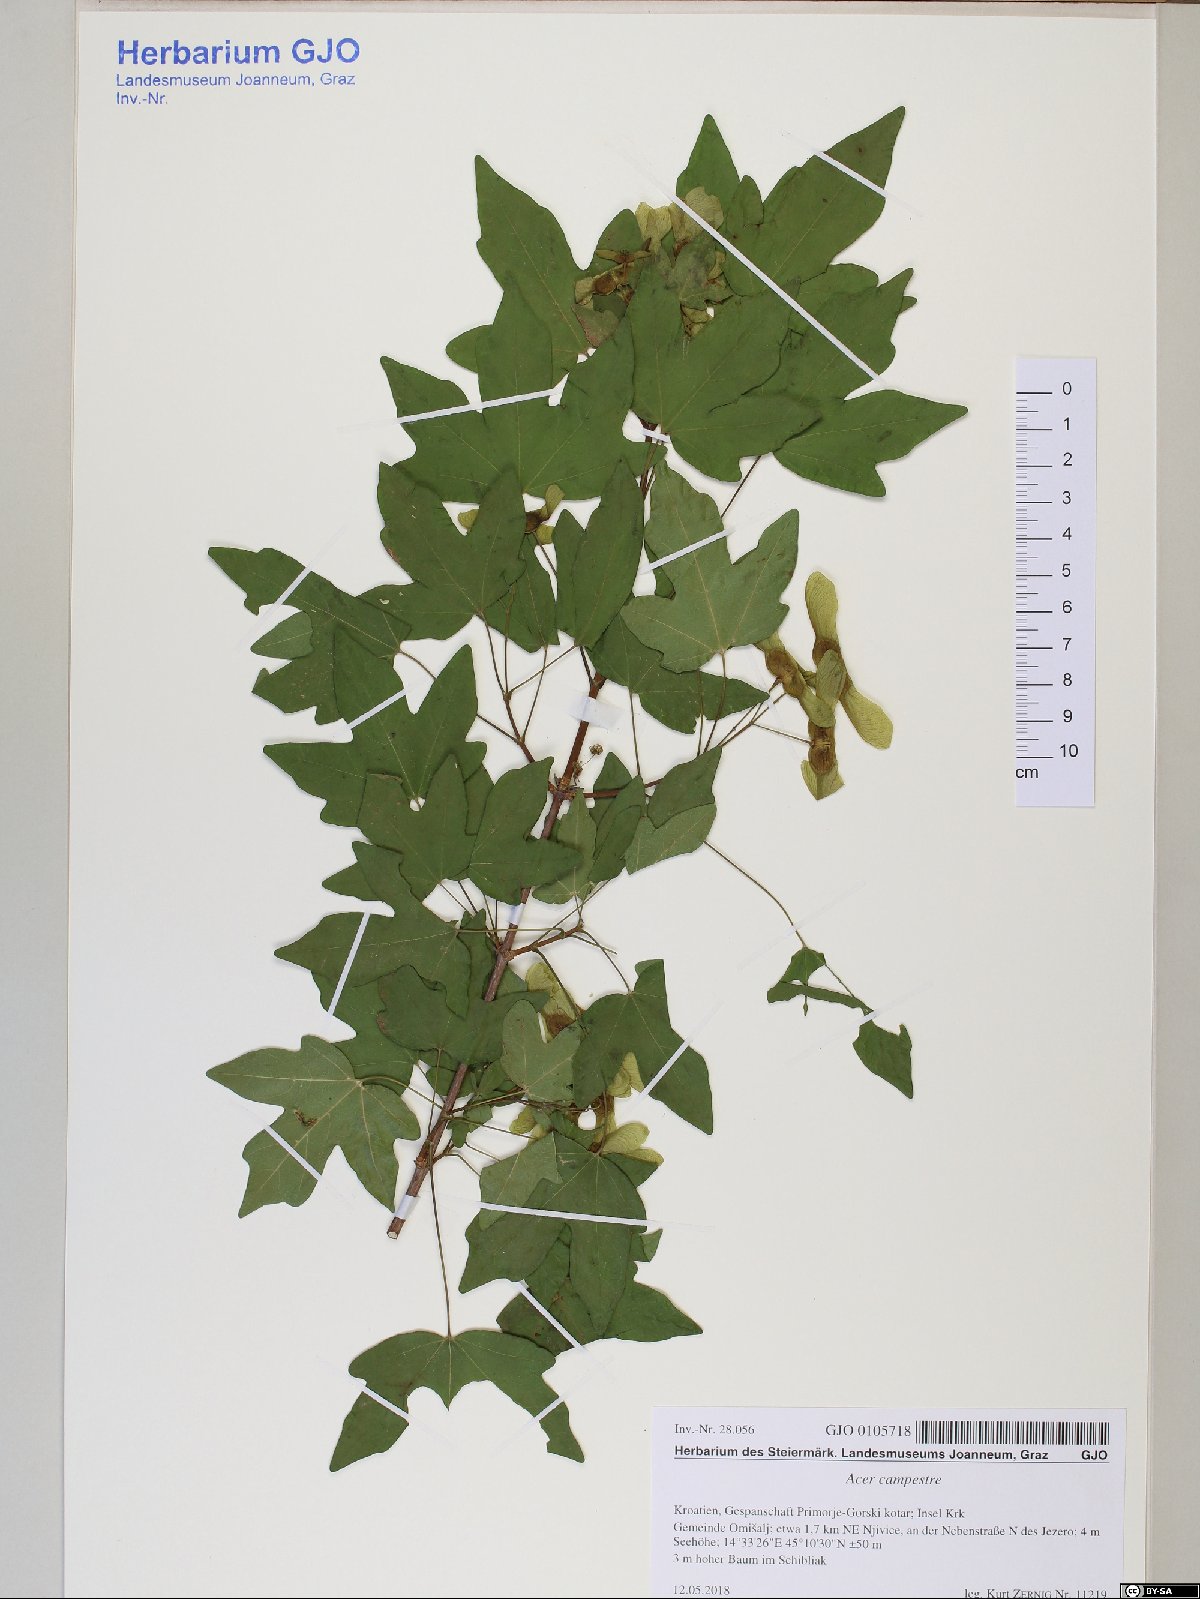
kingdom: Plantae
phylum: Tracheophyta
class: Magnoliopsida
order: Sapindales
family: Sapindaceae
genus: Acer
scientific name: Acer campestre
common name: Field maple
